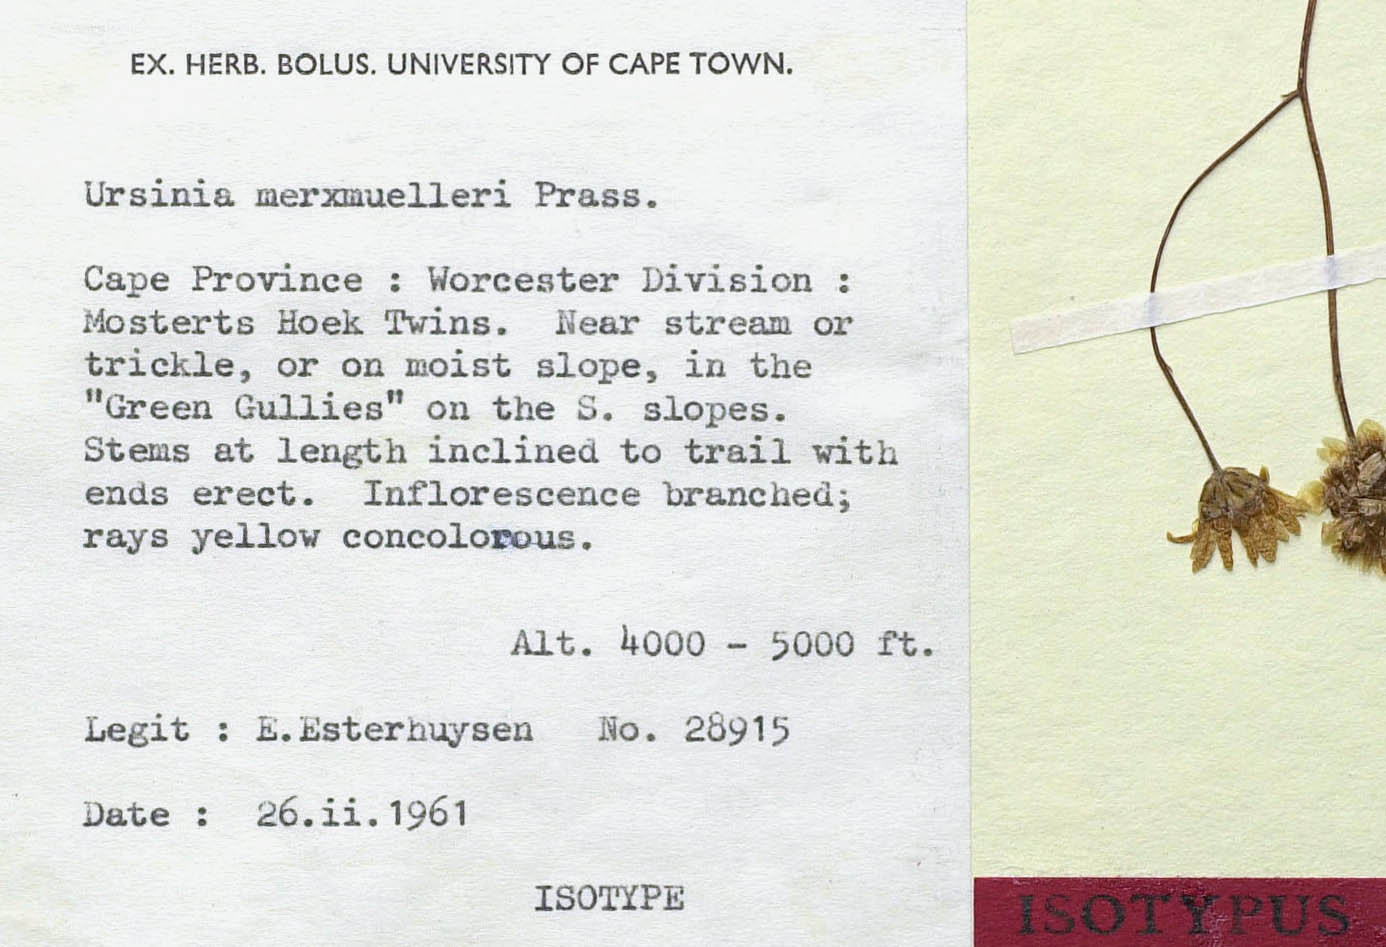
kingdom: Plantae
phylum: Tracheophyta
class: Magnoliopsida
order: Asterales
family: Asteraceae
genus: Ursinia
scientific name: Ursinia merxmuelleri
